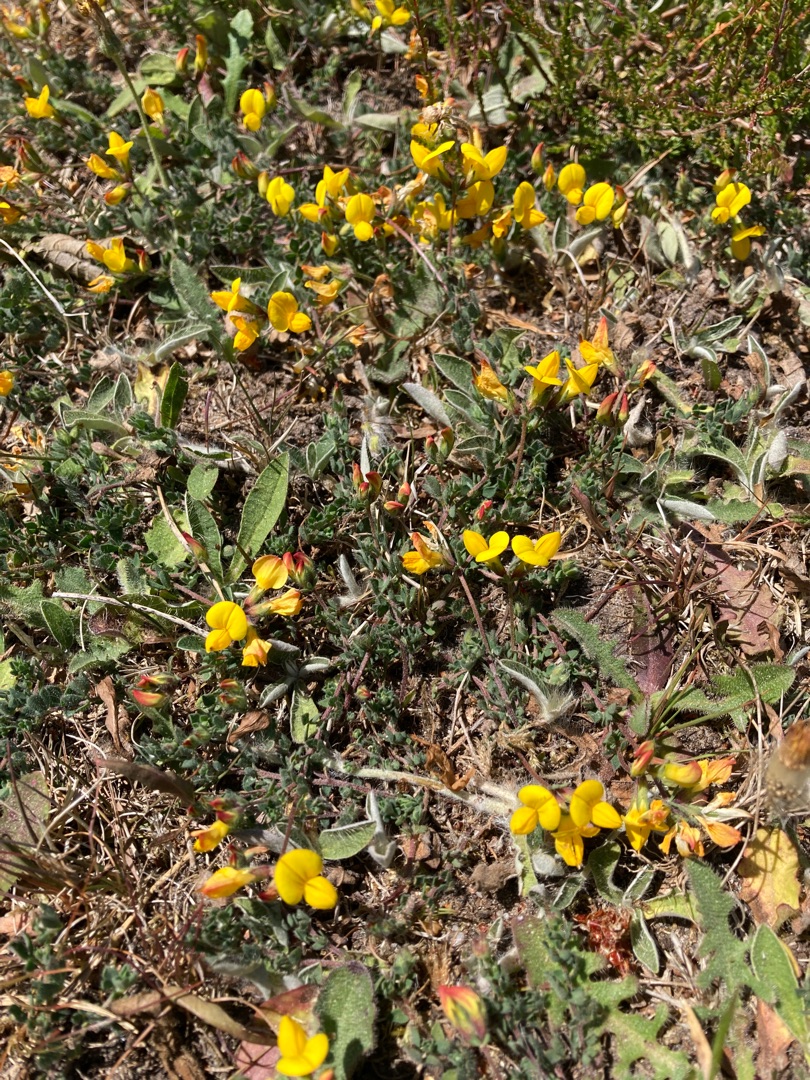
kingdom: Plantae
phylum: Tracheophyta
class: Magnoliopsida
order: Fabales
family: Fabaceae
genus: Lotus
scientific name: Lotus corniculatus
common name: Almindelig kællingetand
